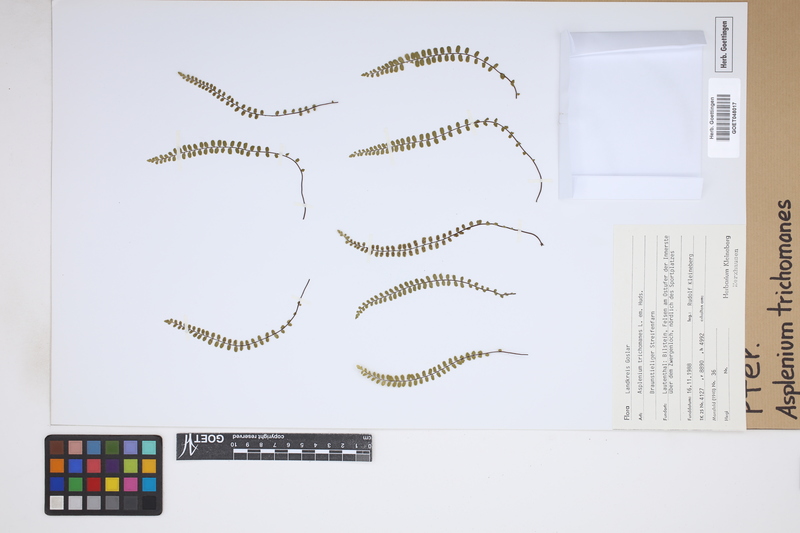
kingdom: Plantae
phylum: Tracheophyta
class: Polypodiopsida
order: Polypodiales
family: Aspleniaceae
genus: Asplenium
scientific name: Asplenium trichomanes
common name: Maidenhair spleenwort
